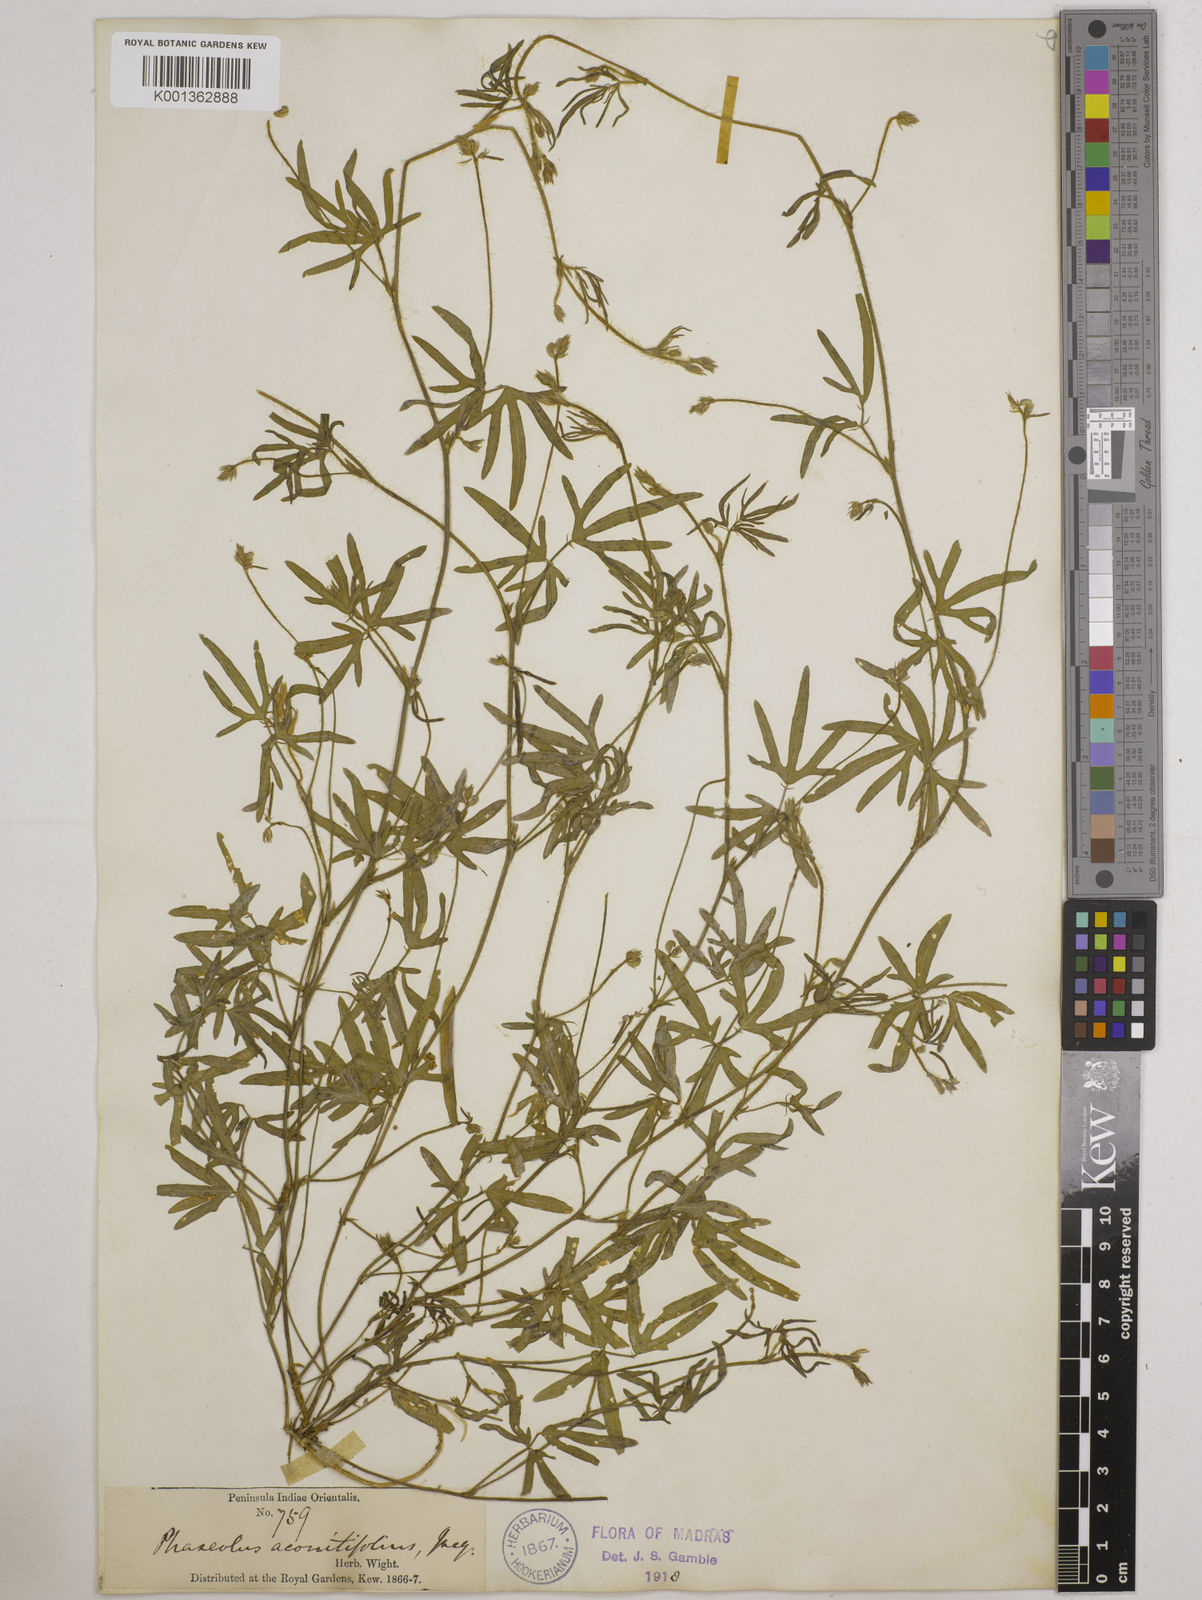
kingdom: Plantae
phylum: Tracheophyta
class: Magnoliopsida
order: Fabales
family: Fabaceae
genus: Vigna
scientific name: Vigna aconitifolia
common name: Dew bean
